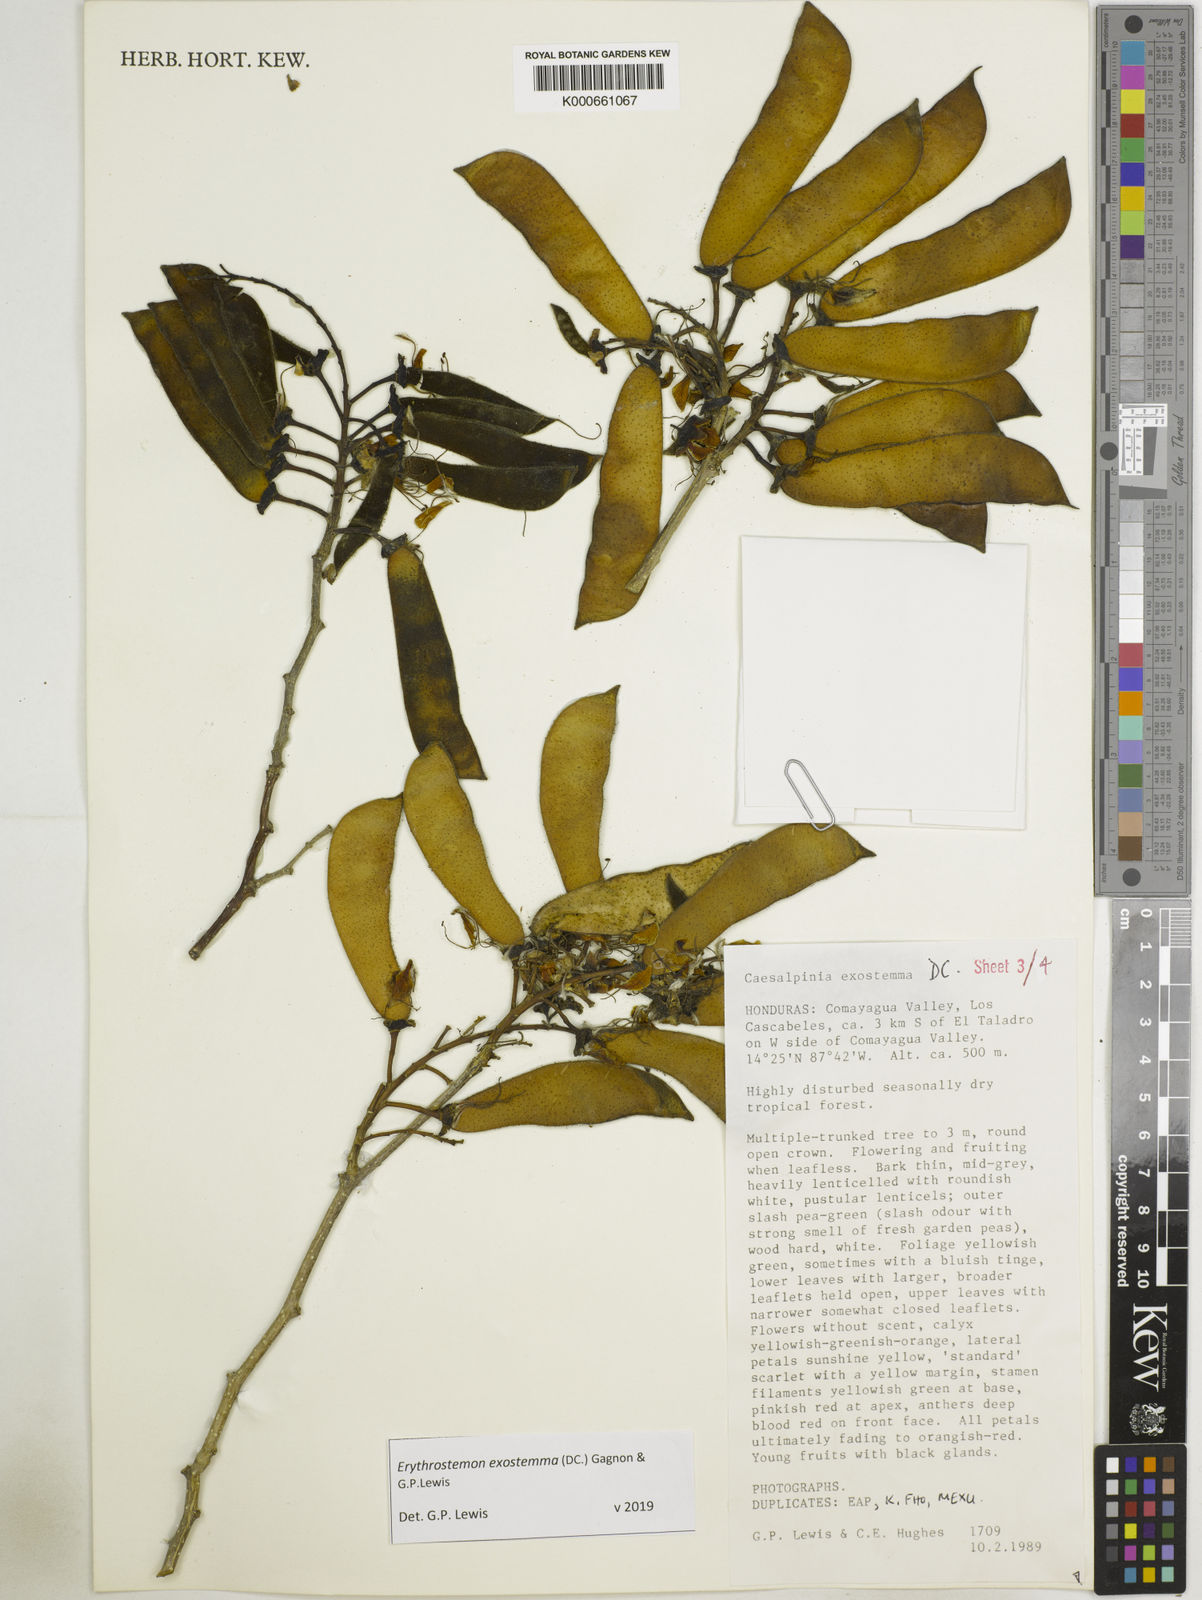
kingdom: Plantae
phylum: Tracheophyta
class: Magnoliopsida
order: Fabales
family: Fabaceae
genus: Erythrostemon
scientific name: Erythrostemon exostemma
